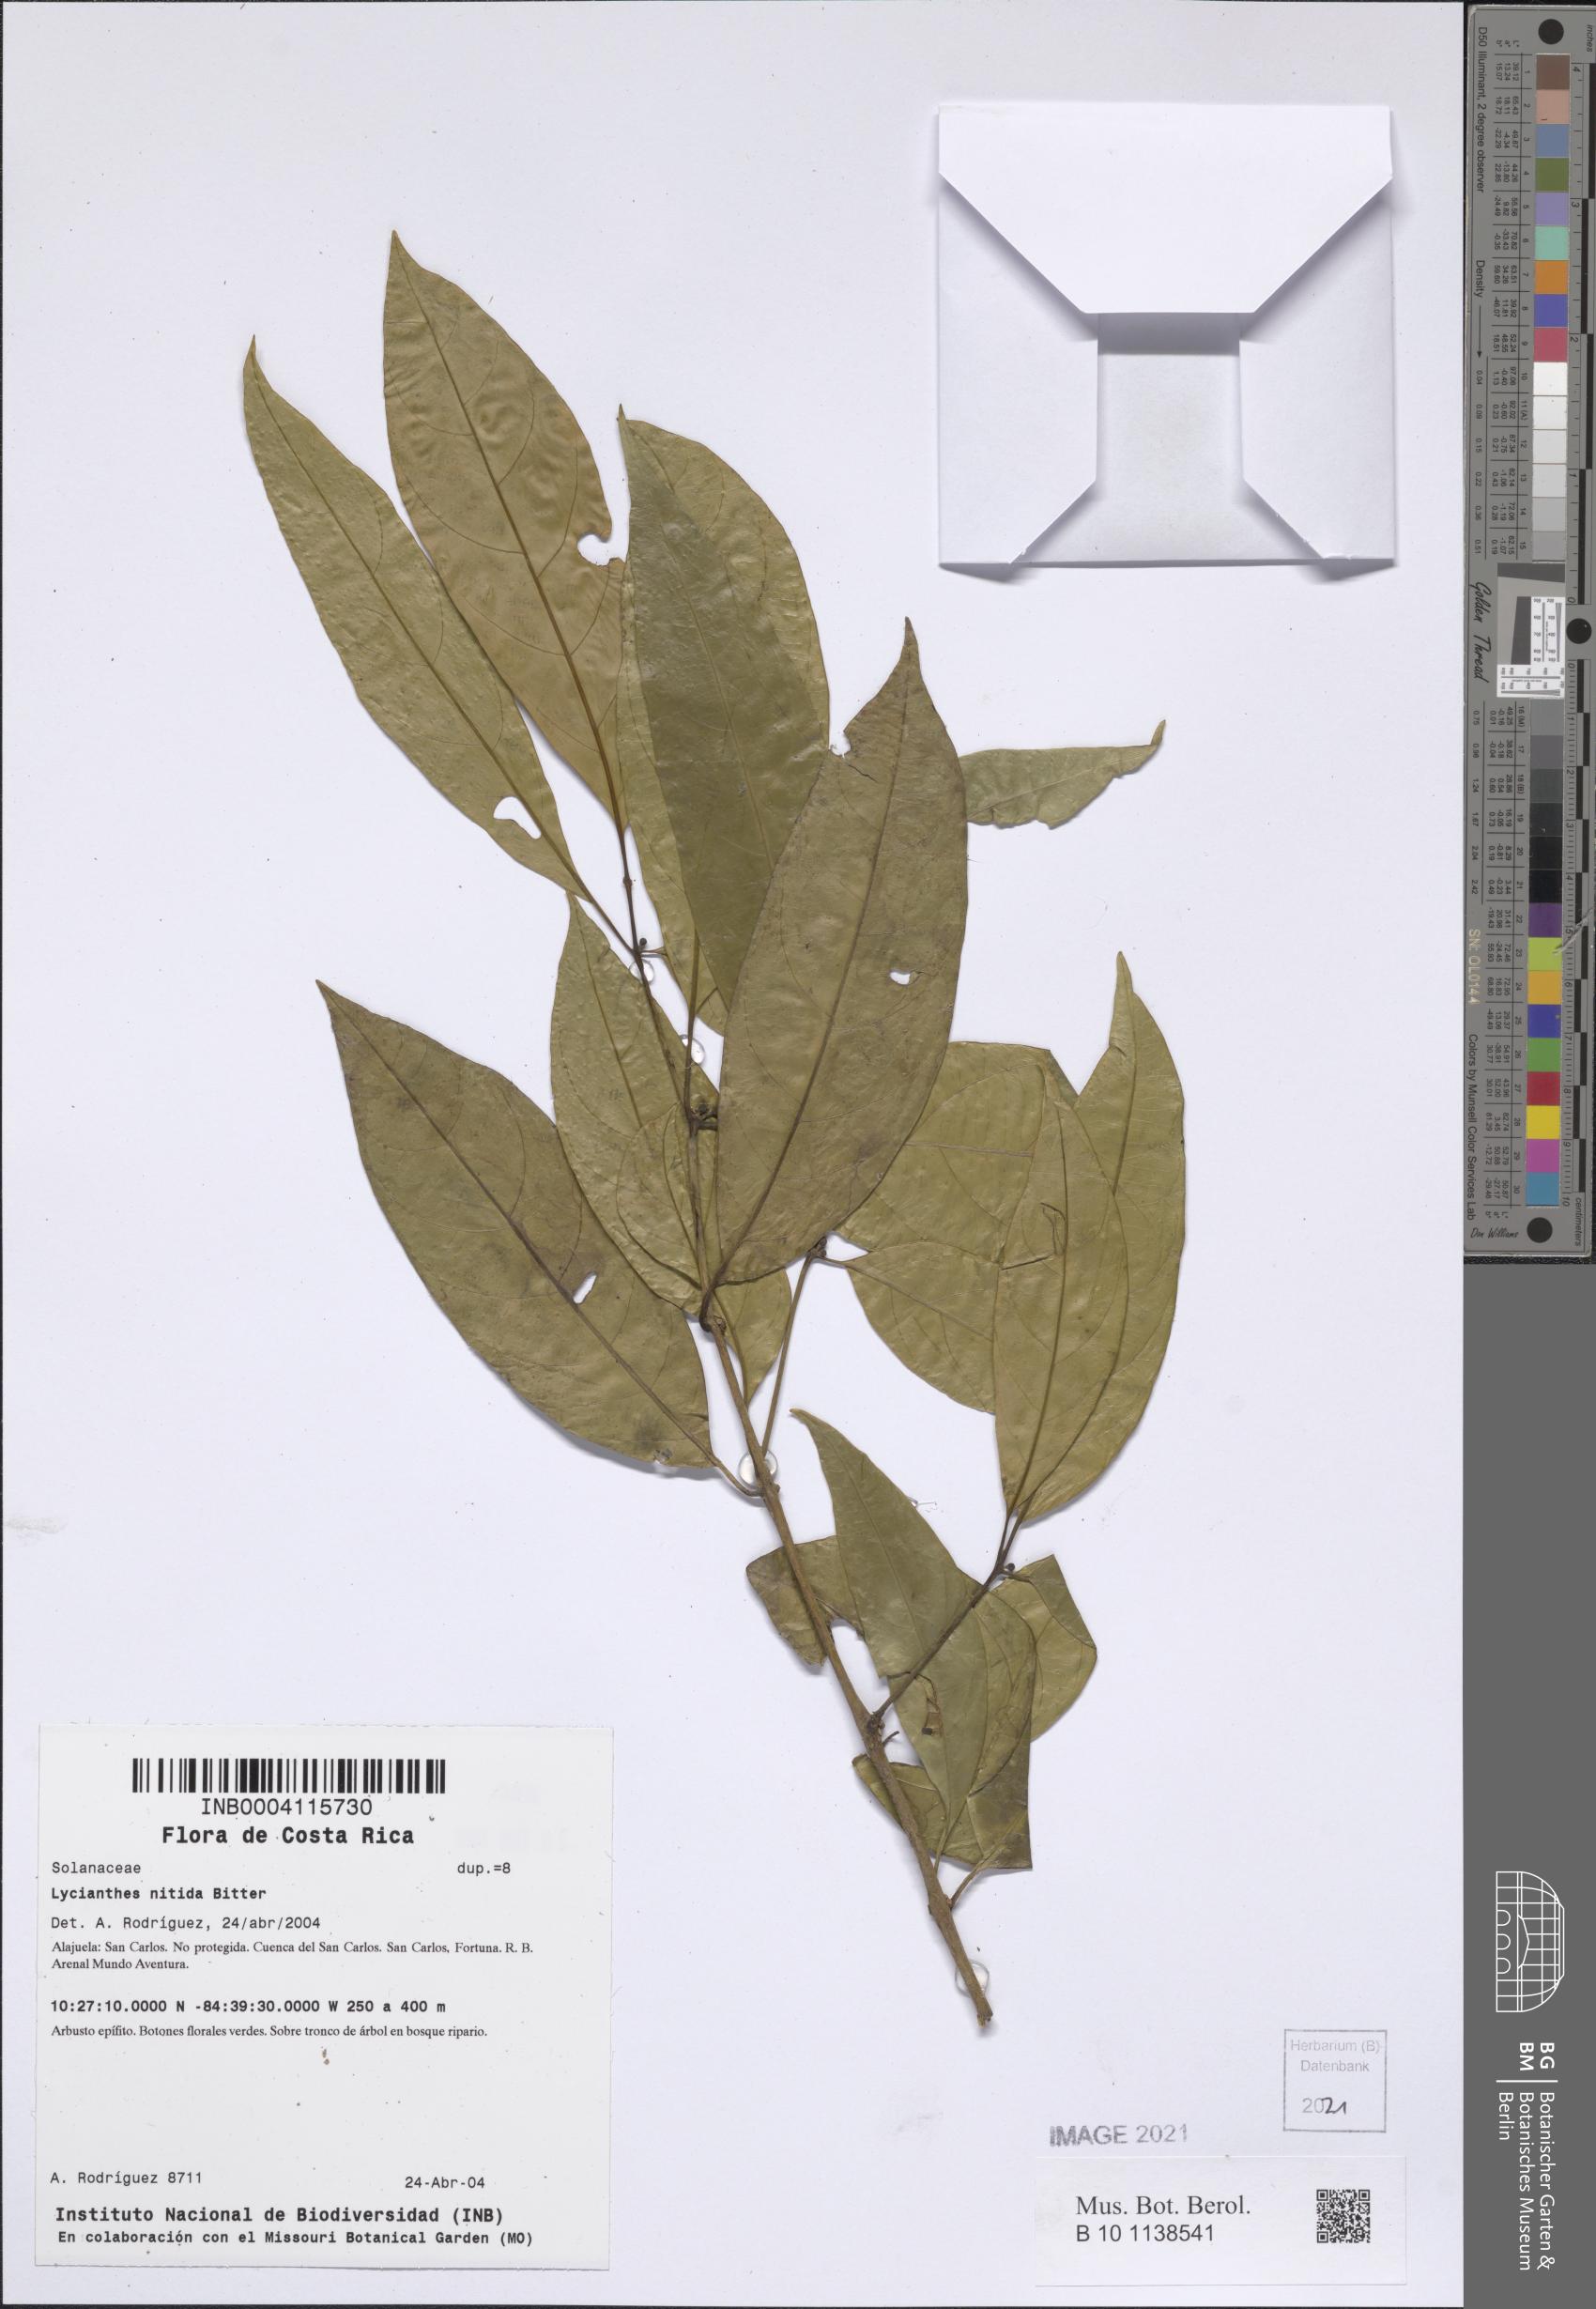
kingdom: Plantae
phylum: Tracheophyta
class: Magnoliopsida
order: Solanales
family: Solanaceae
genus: Lycianthes
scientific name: Lycianthes nitida
